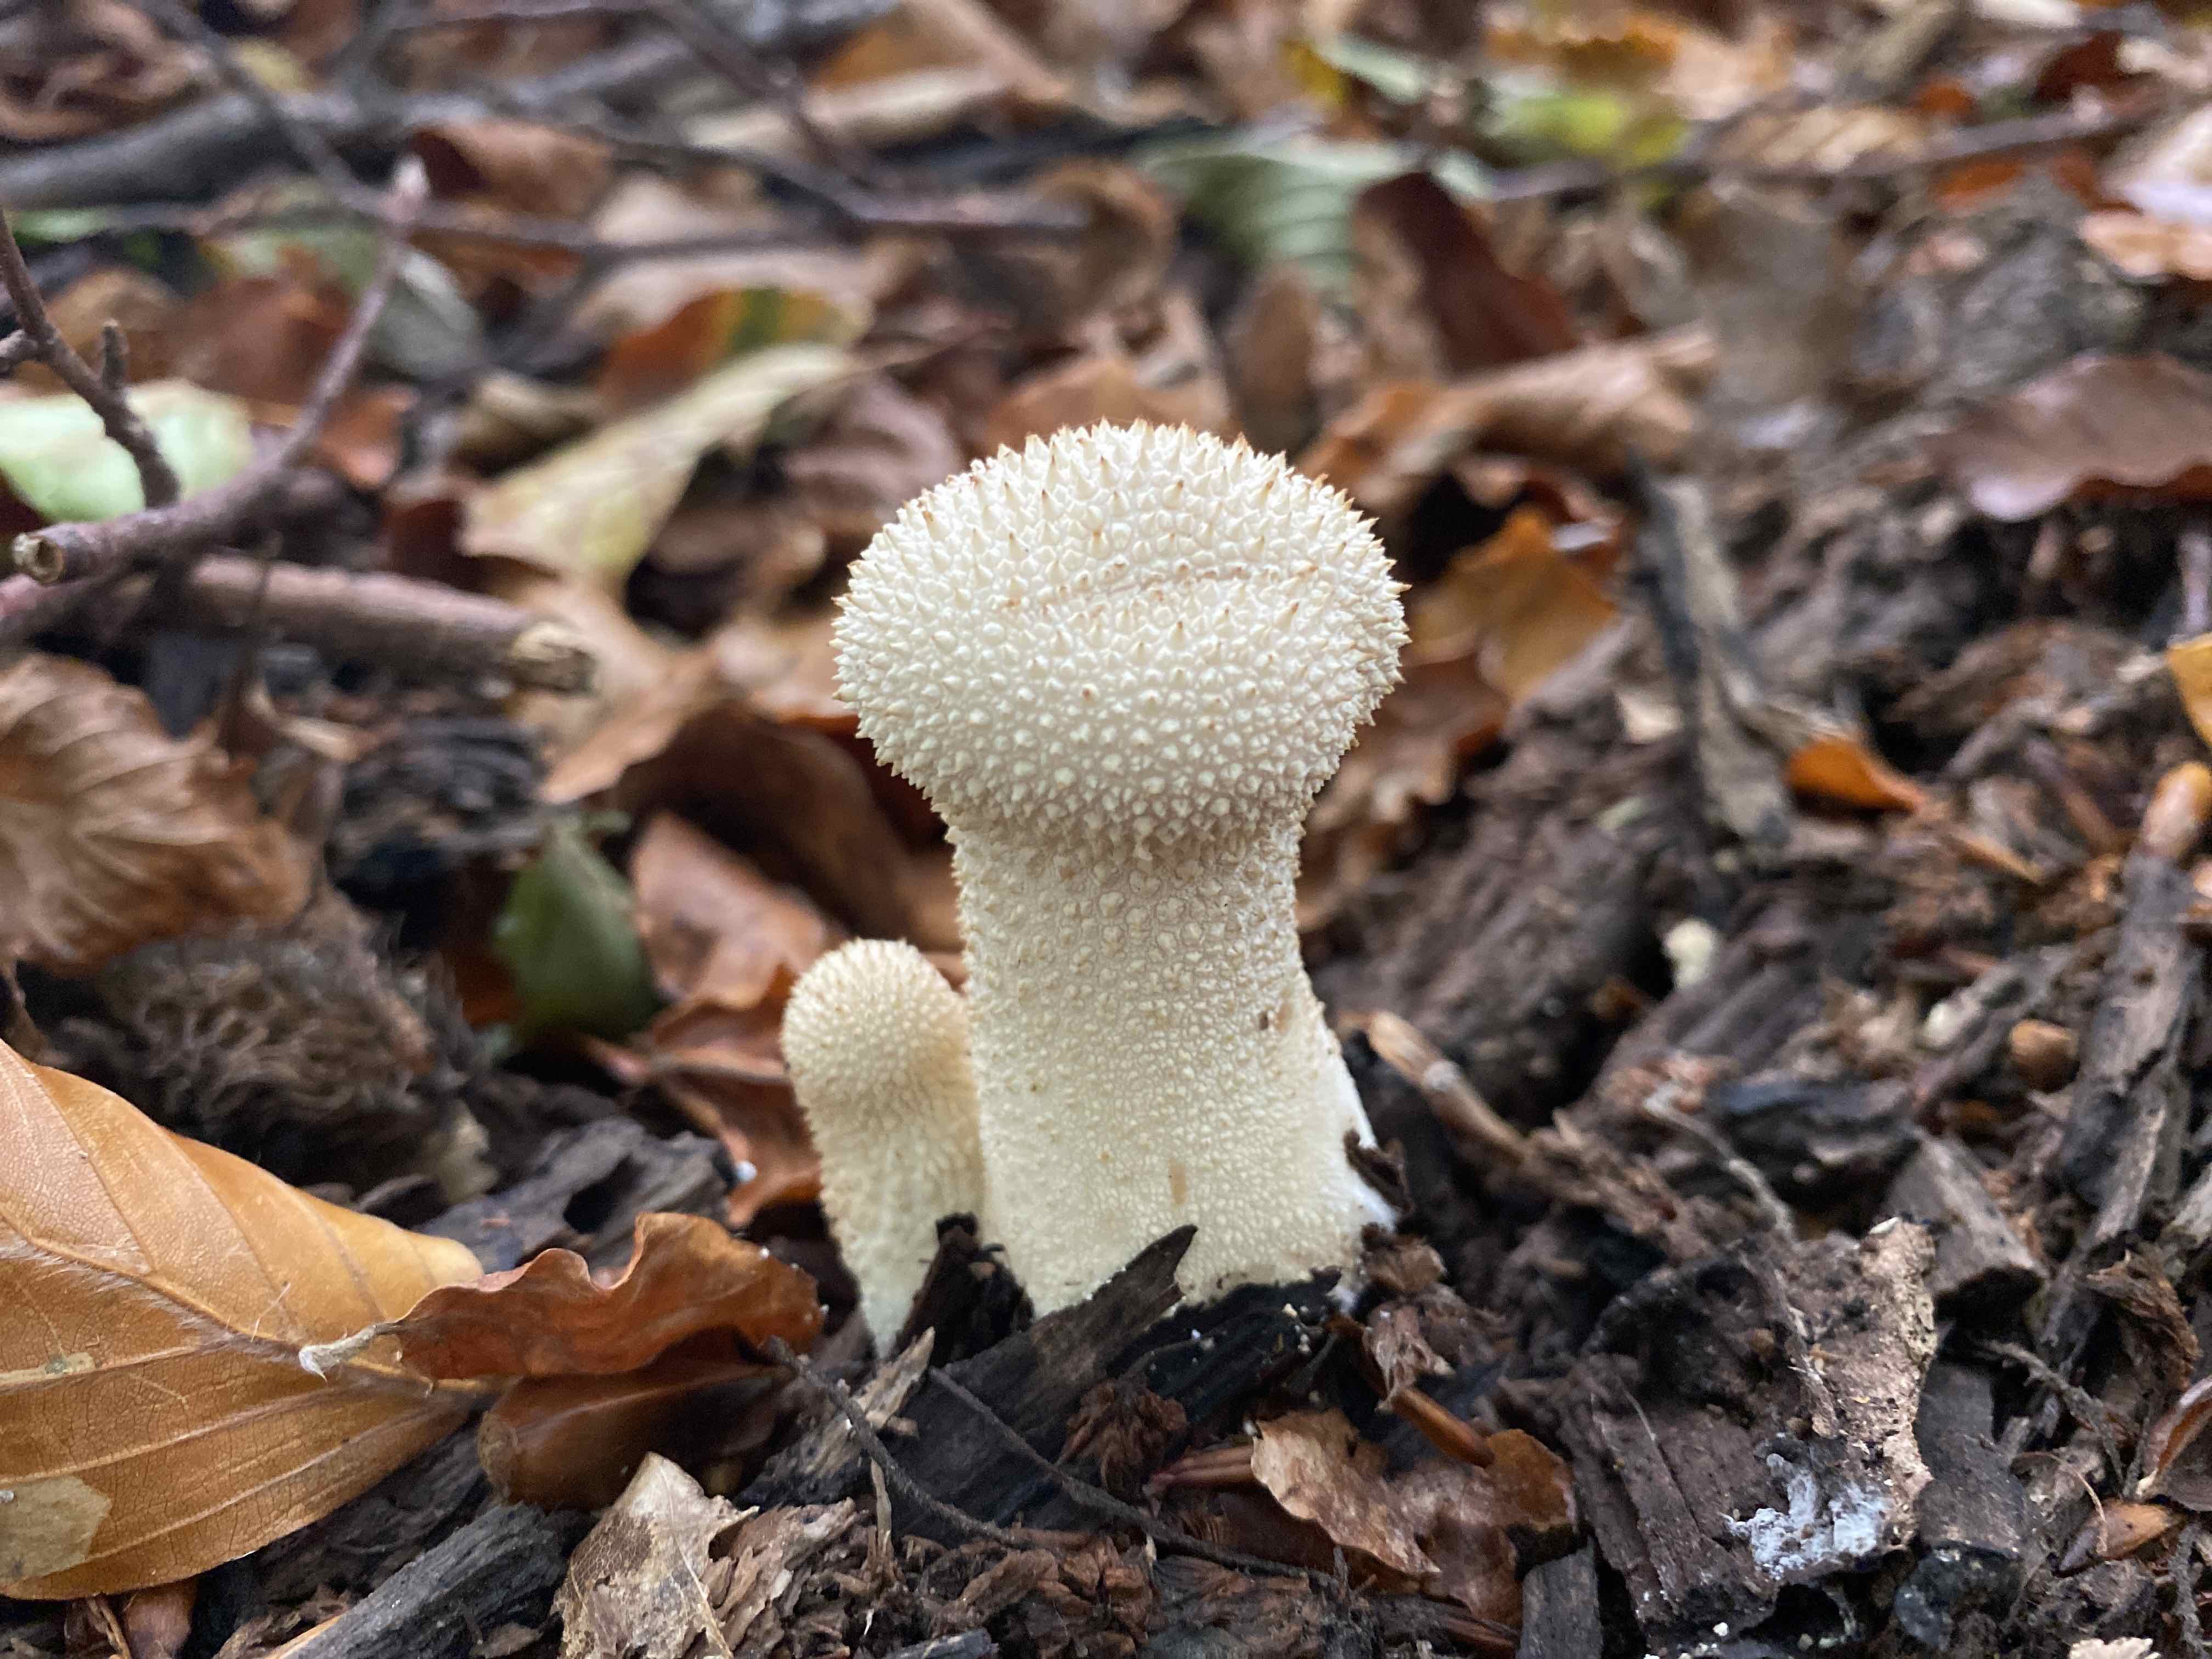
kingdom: Fungi
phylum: Basidiomycota
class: Agaricomycetes
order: Agaricales
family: Lycoperdaceae
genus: Lycoperdon
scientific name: Lycoperdon perlatum
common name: krystal-støvbold
